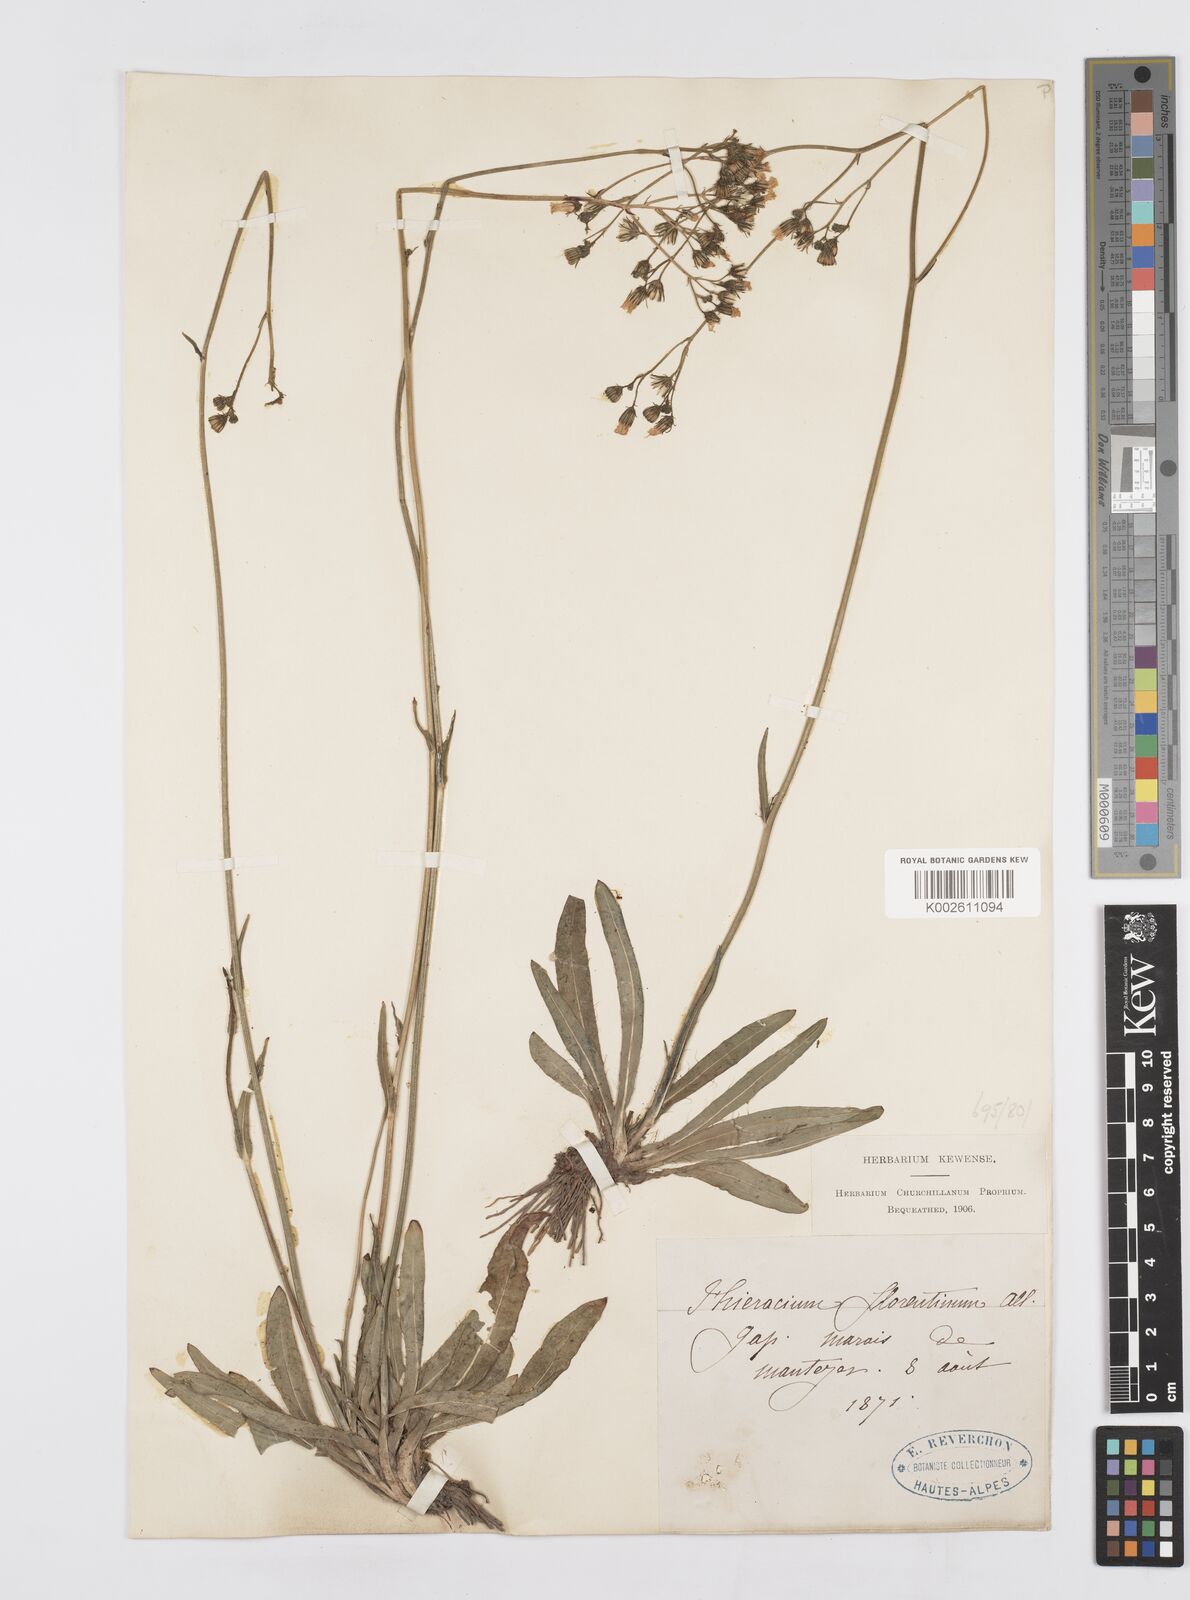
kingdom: Plantae
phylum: Tracheophyta
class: Magnoliopsida
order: Asterales
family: Asteraceae
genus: Pilosella
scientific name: Pilosella piloselloides
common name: Glaucous king-devil
